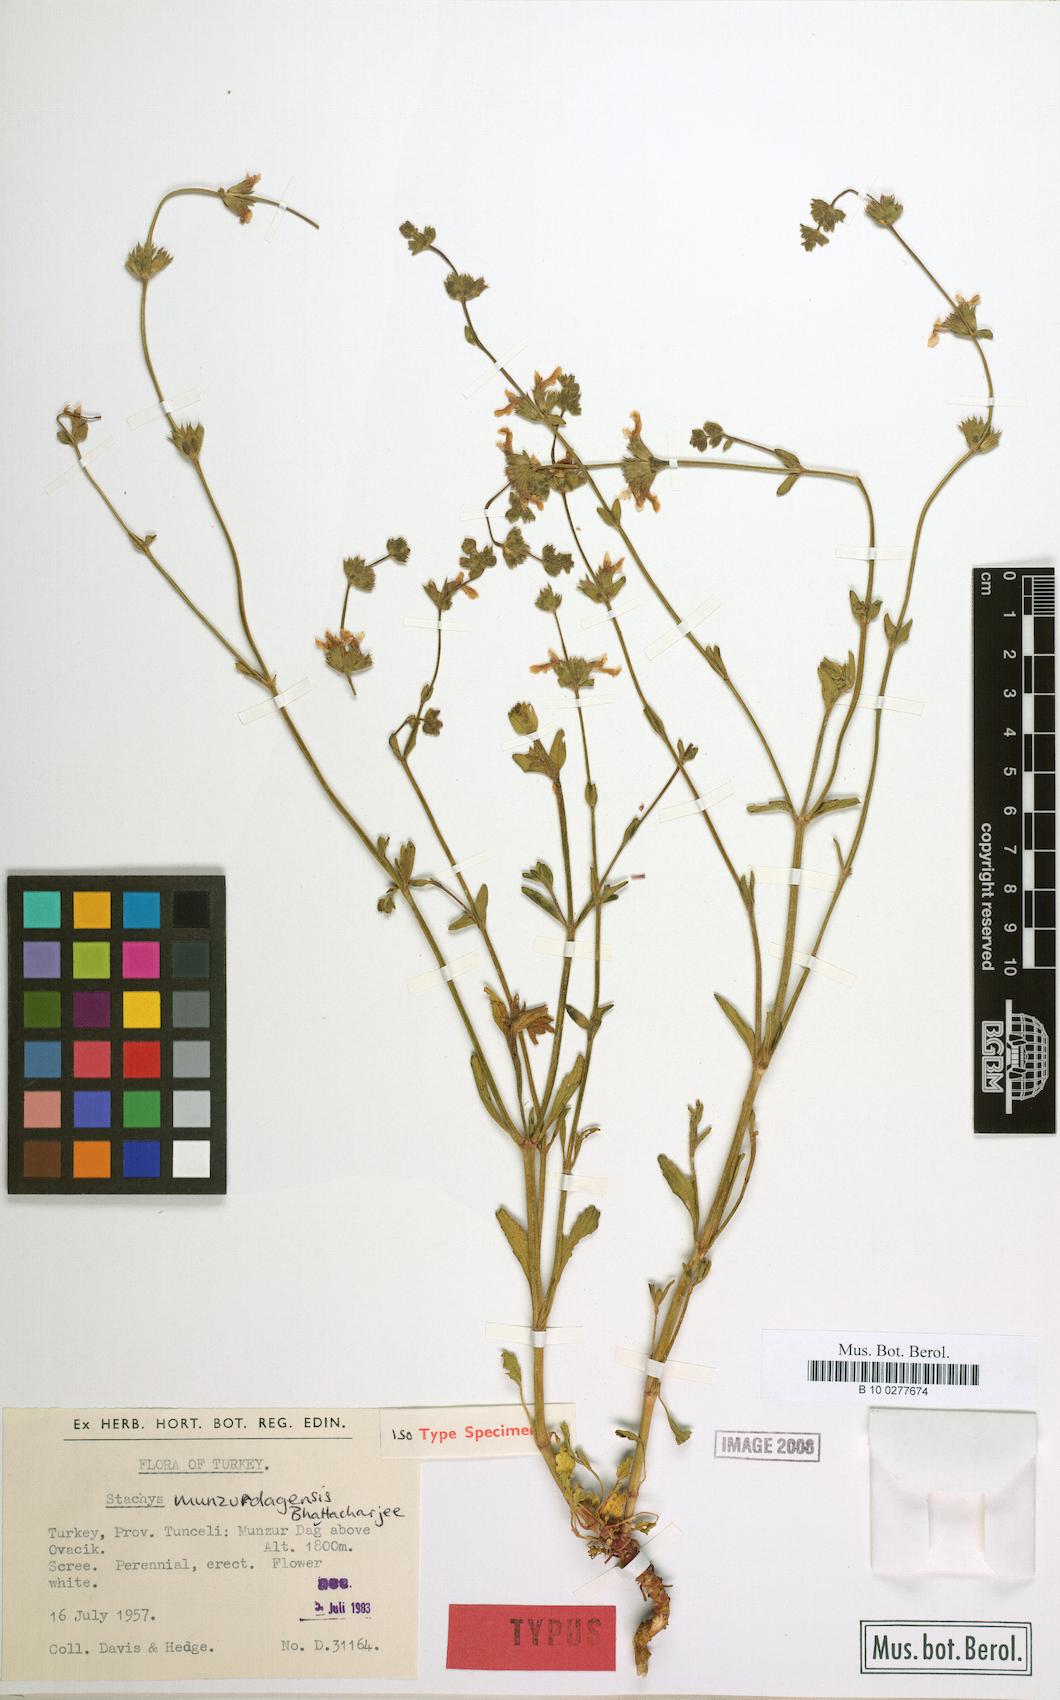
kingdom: Plantae
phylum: Tracheophyta
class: Magnoliopsida
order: Lamiales
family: Lamiaceae
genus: Stachys
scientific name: Stachys munzurdagensis
